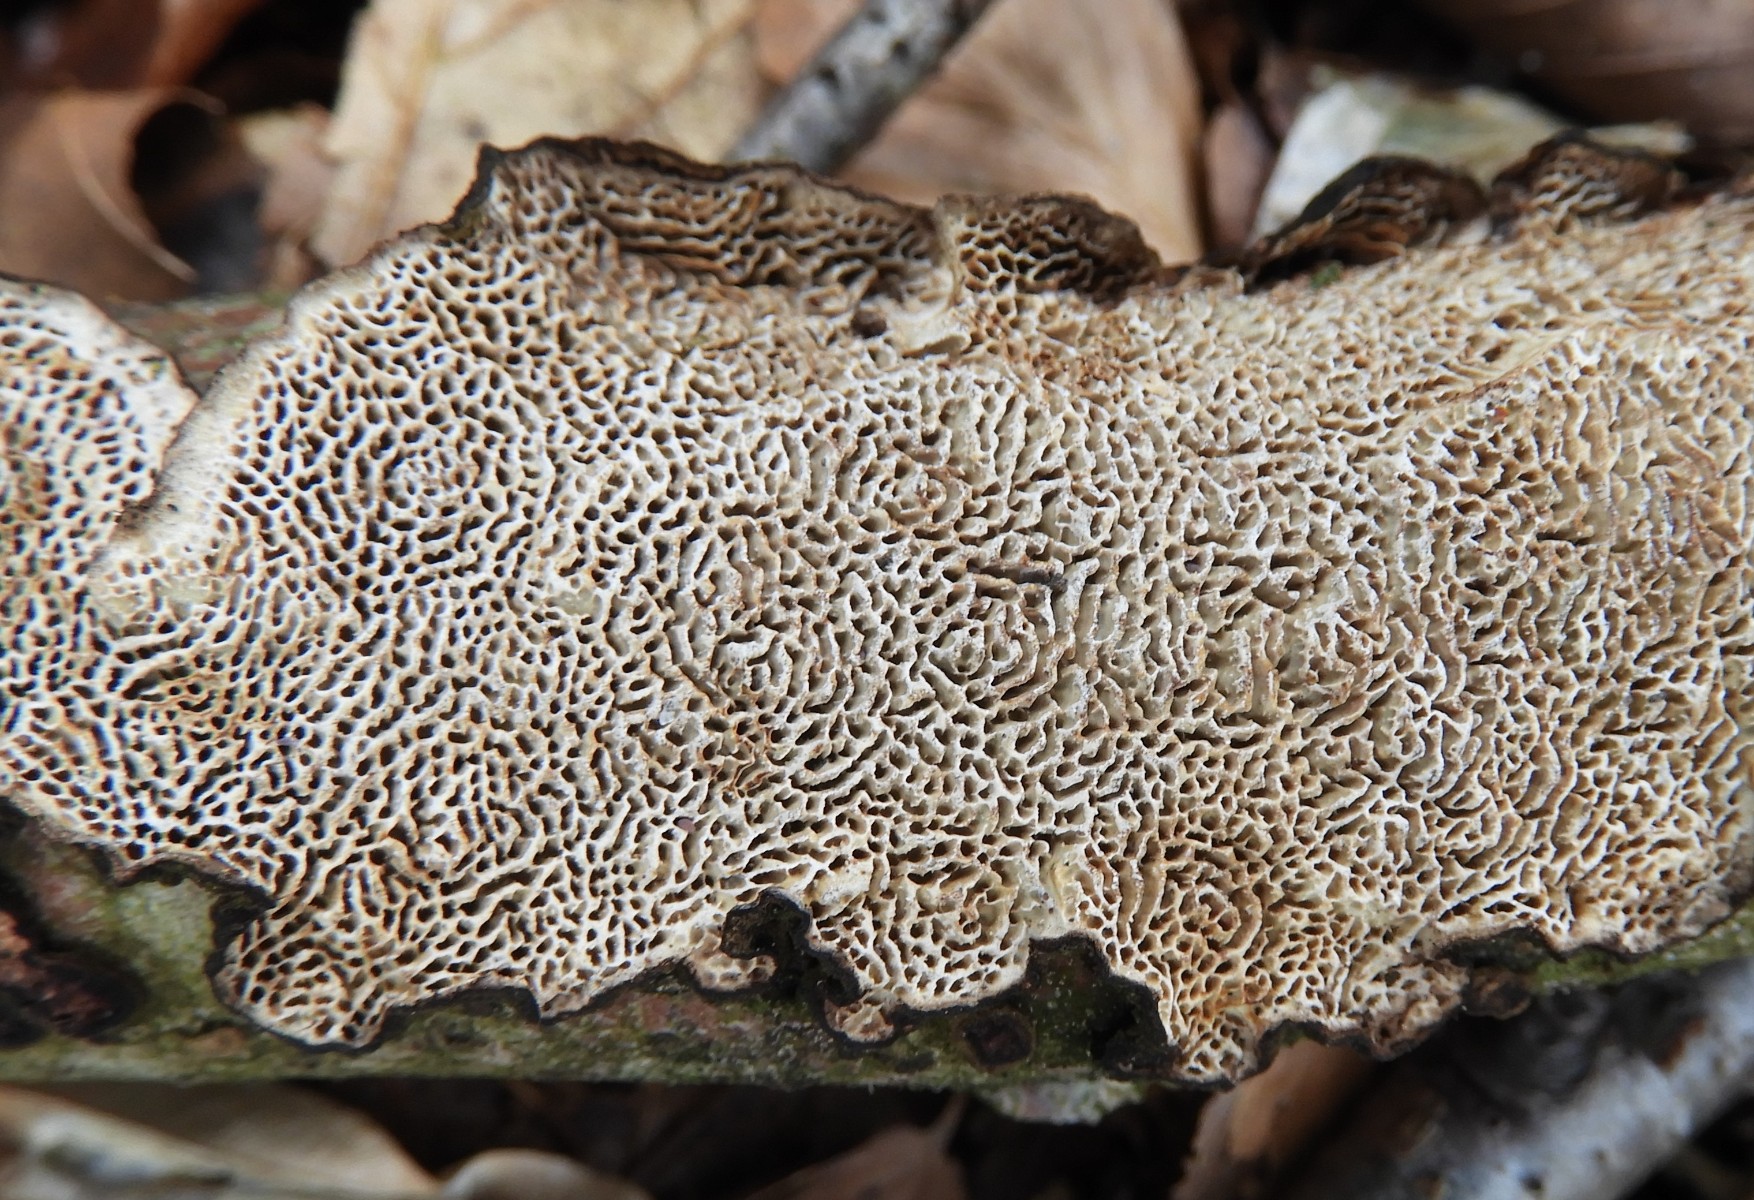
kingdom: Fungi
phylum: Basidiomycota
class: Agaricomycetes
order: Polyporales
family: Polyporaceae
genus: Podofomes
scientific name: Podofomes mollis
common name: blød begporesvamp
